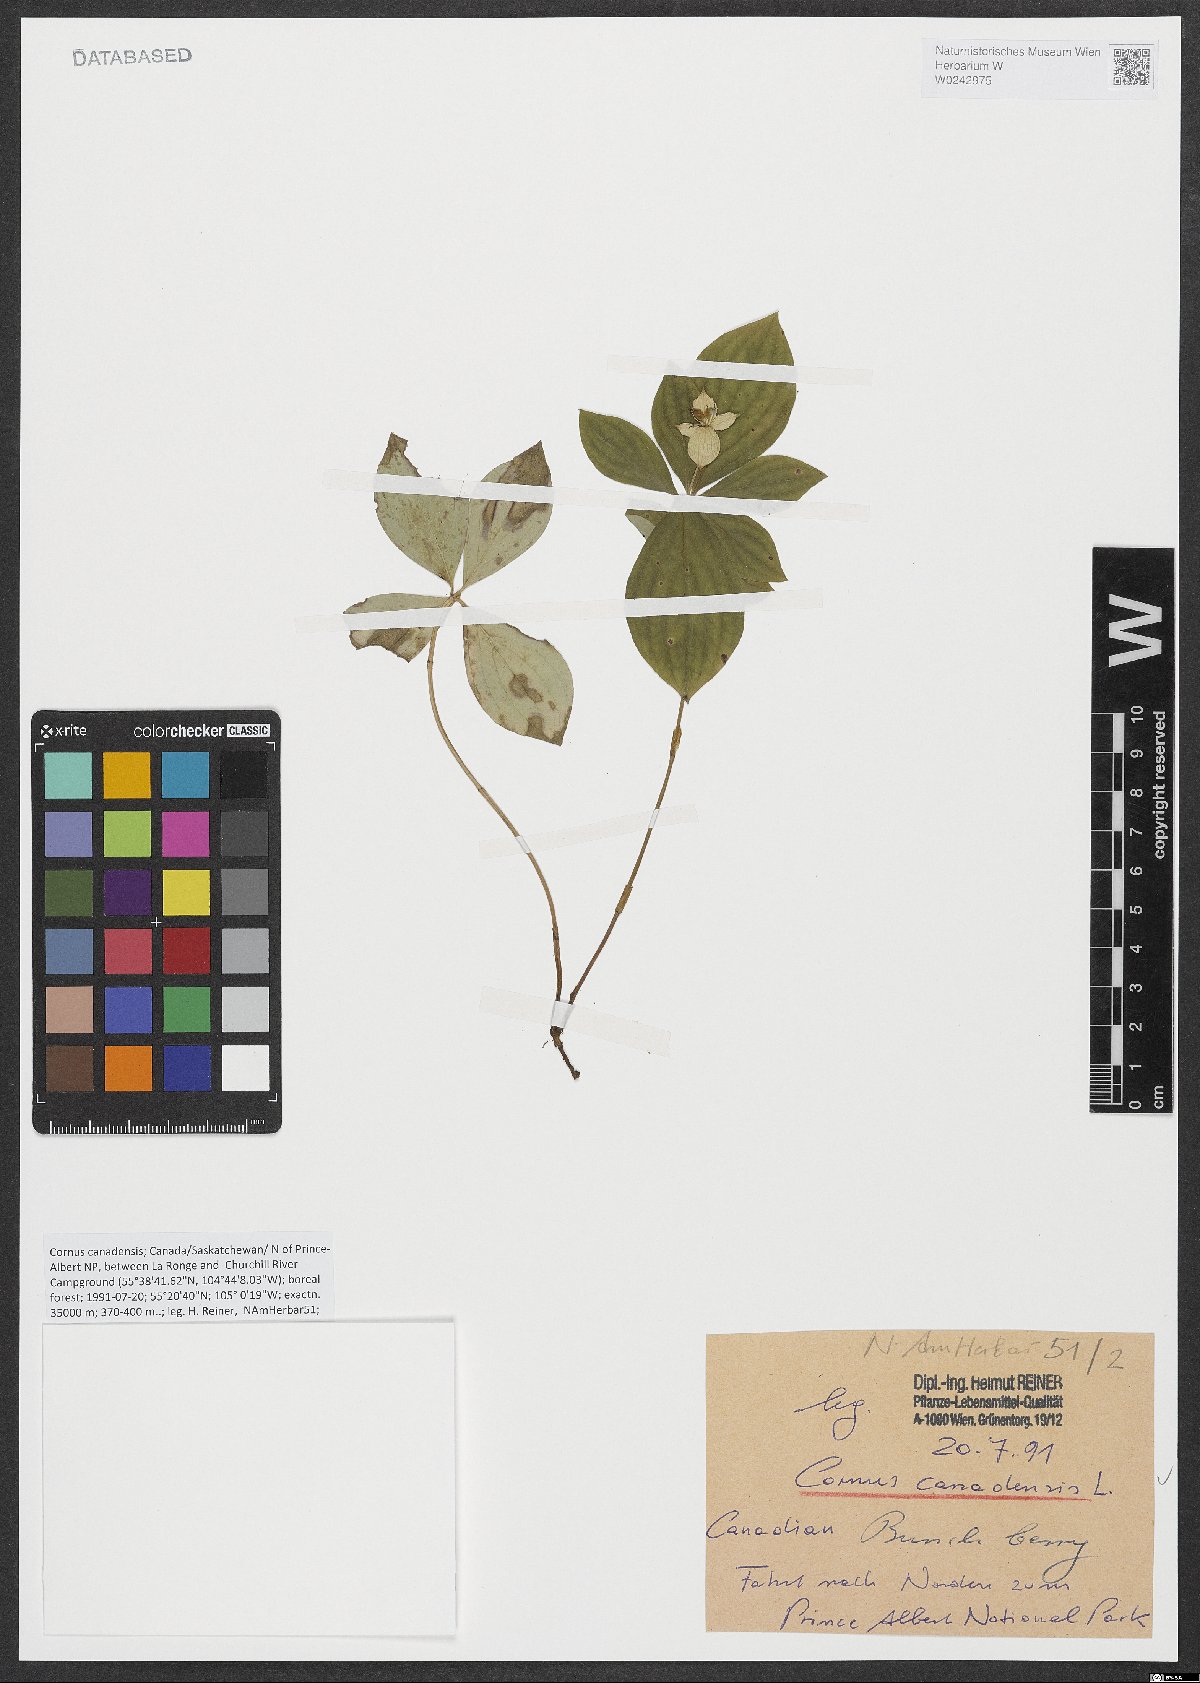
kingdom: Plantae
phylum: Tracheophyta
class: Magnoliopsida
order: Cornales
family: Cornaceae
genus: Cornus
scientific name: Cornus canadensis
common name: Creeping dogwood
